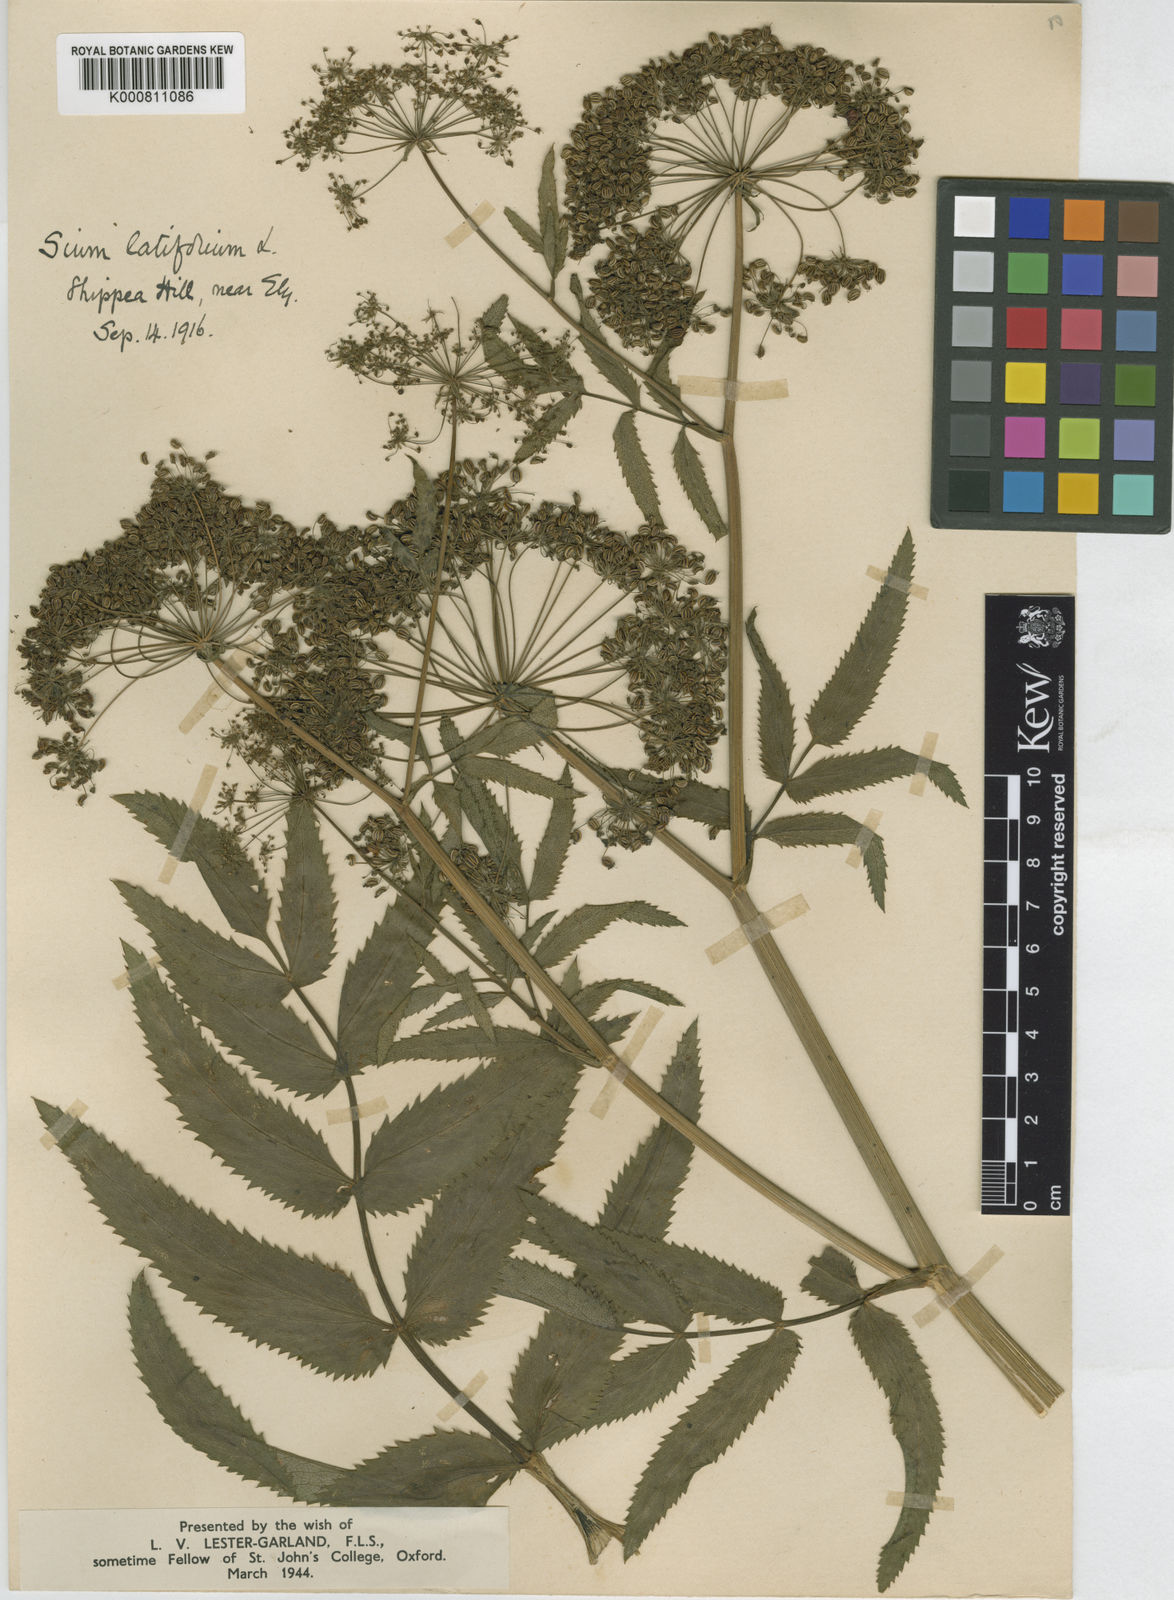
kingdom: Plantae
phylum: Tracheophyta
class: Magnoliopsida
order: Apiales
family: Apiaceae
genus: Sium
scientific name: Sium latifolium
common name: Greater water-parsnip
